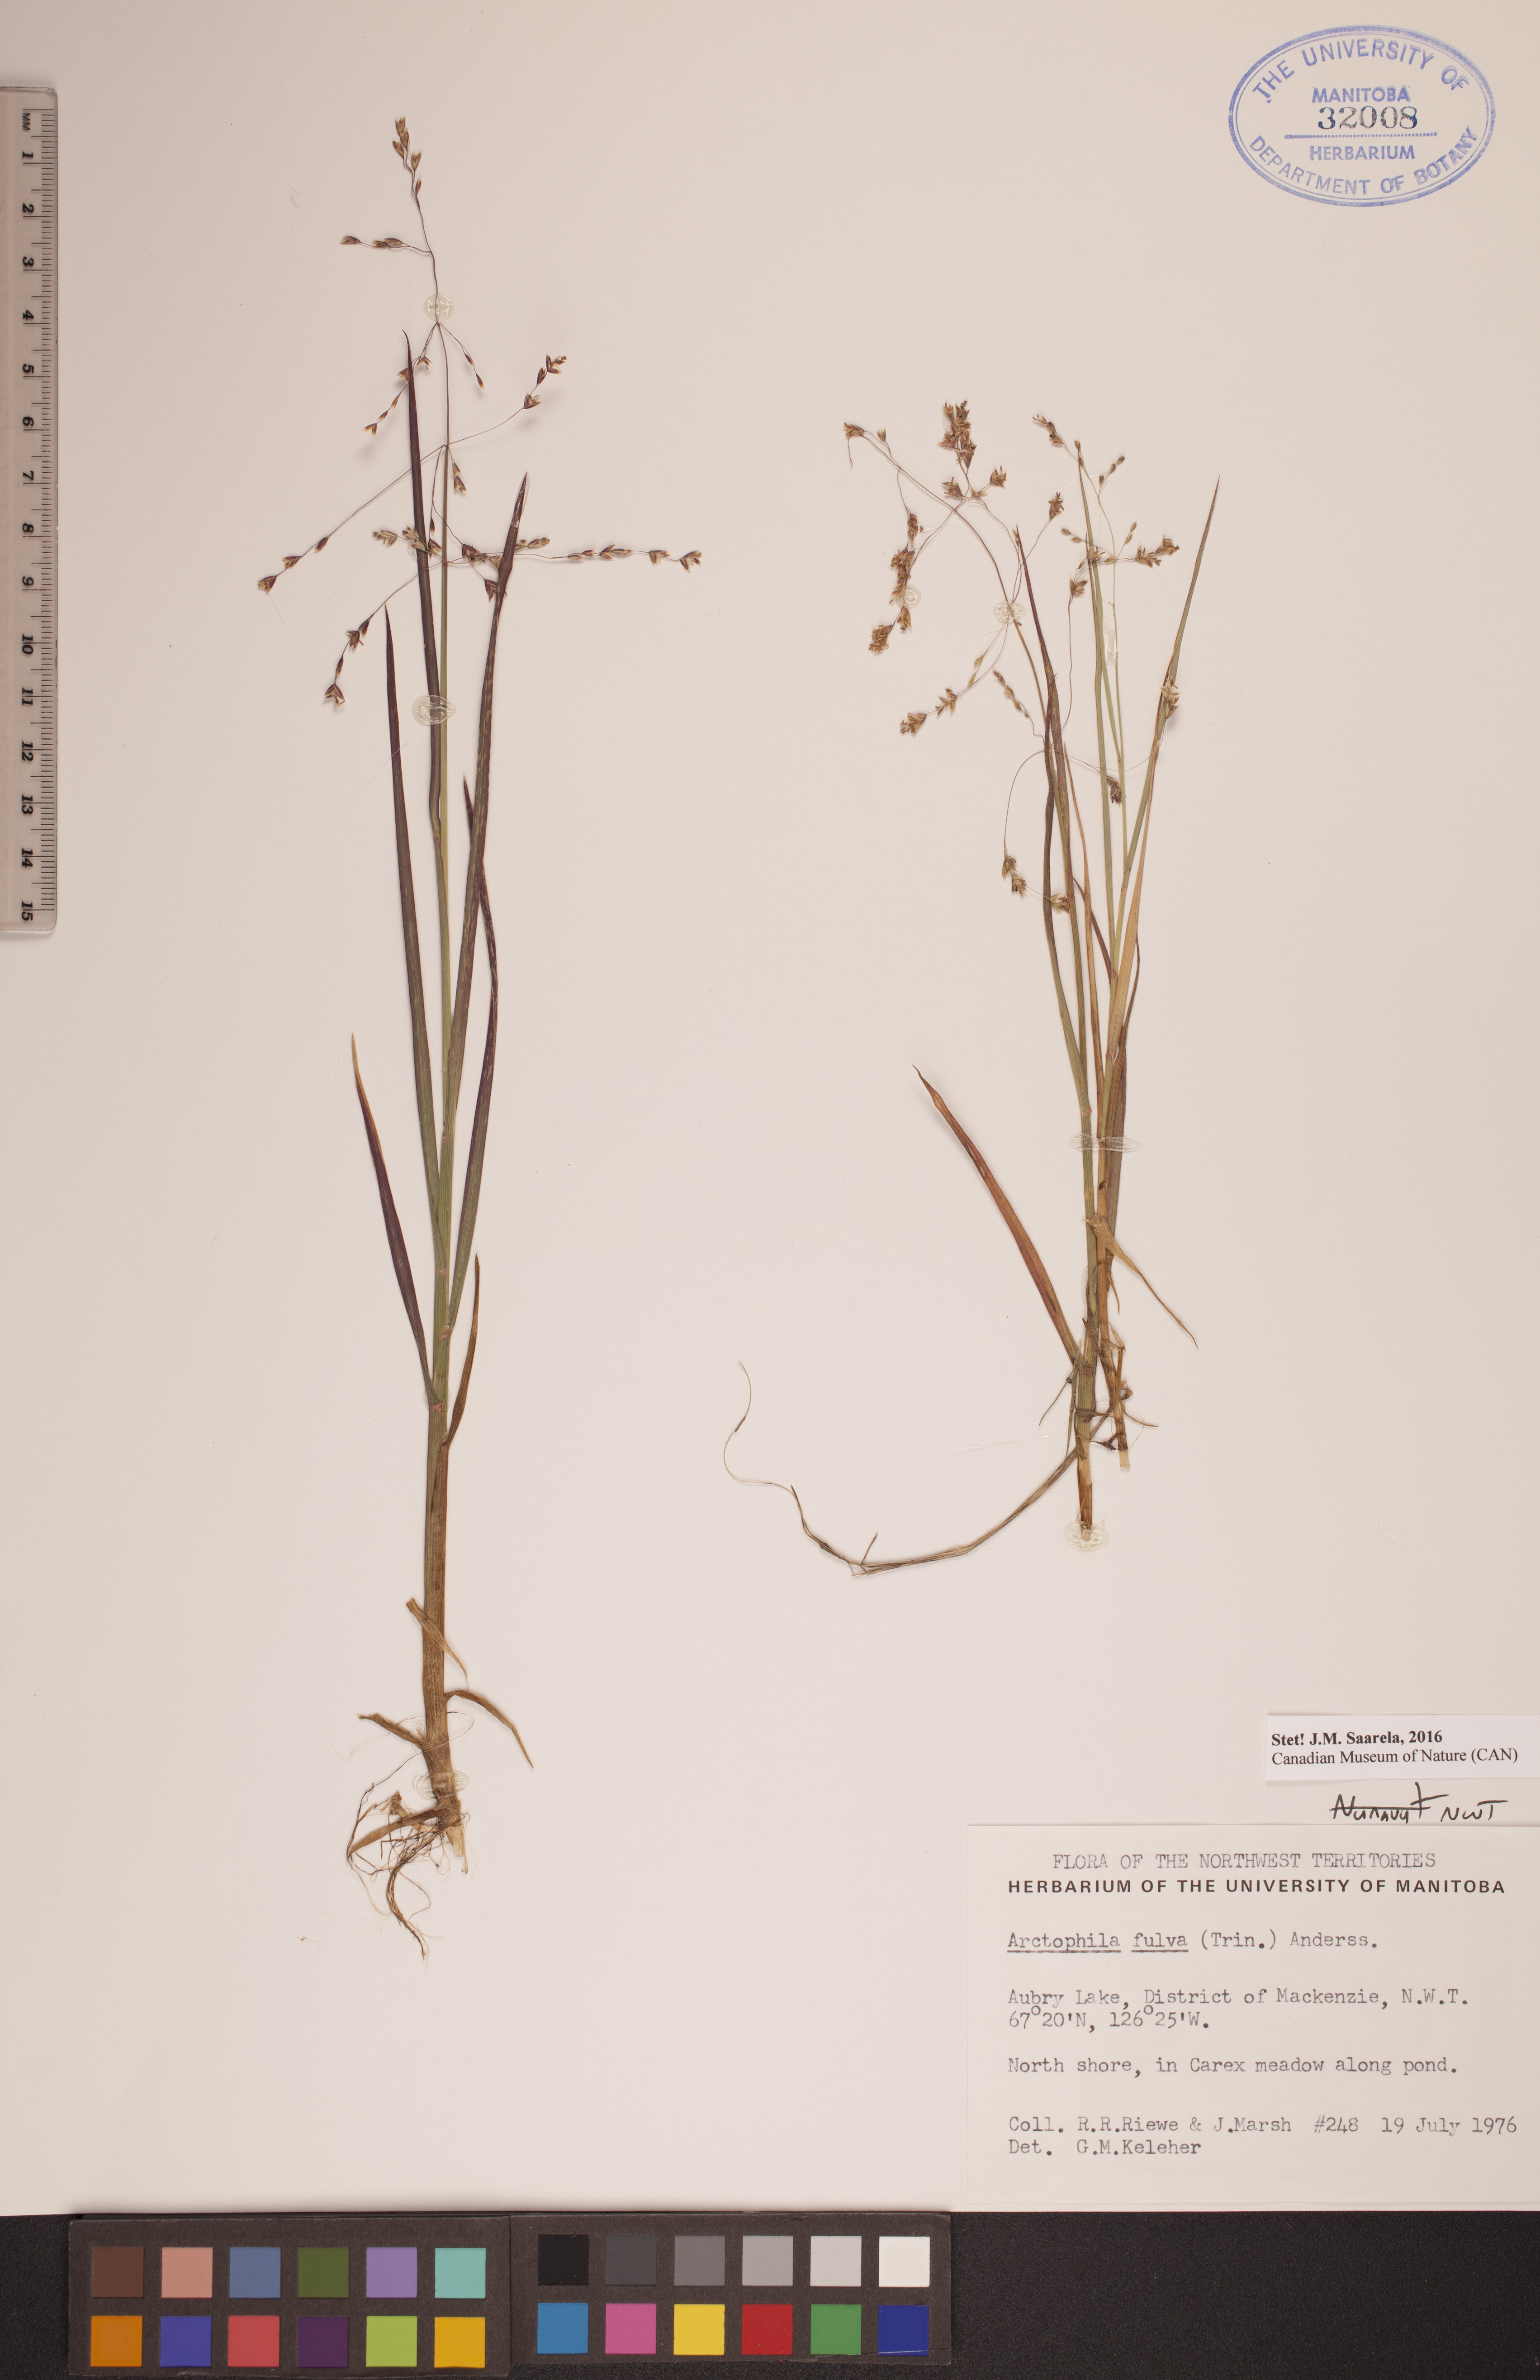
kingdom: Plantae
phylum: Tracheophyta
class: Liliopsida
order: Poales
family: Poaceae
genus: Dupontia
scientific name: Dupontia fulva
